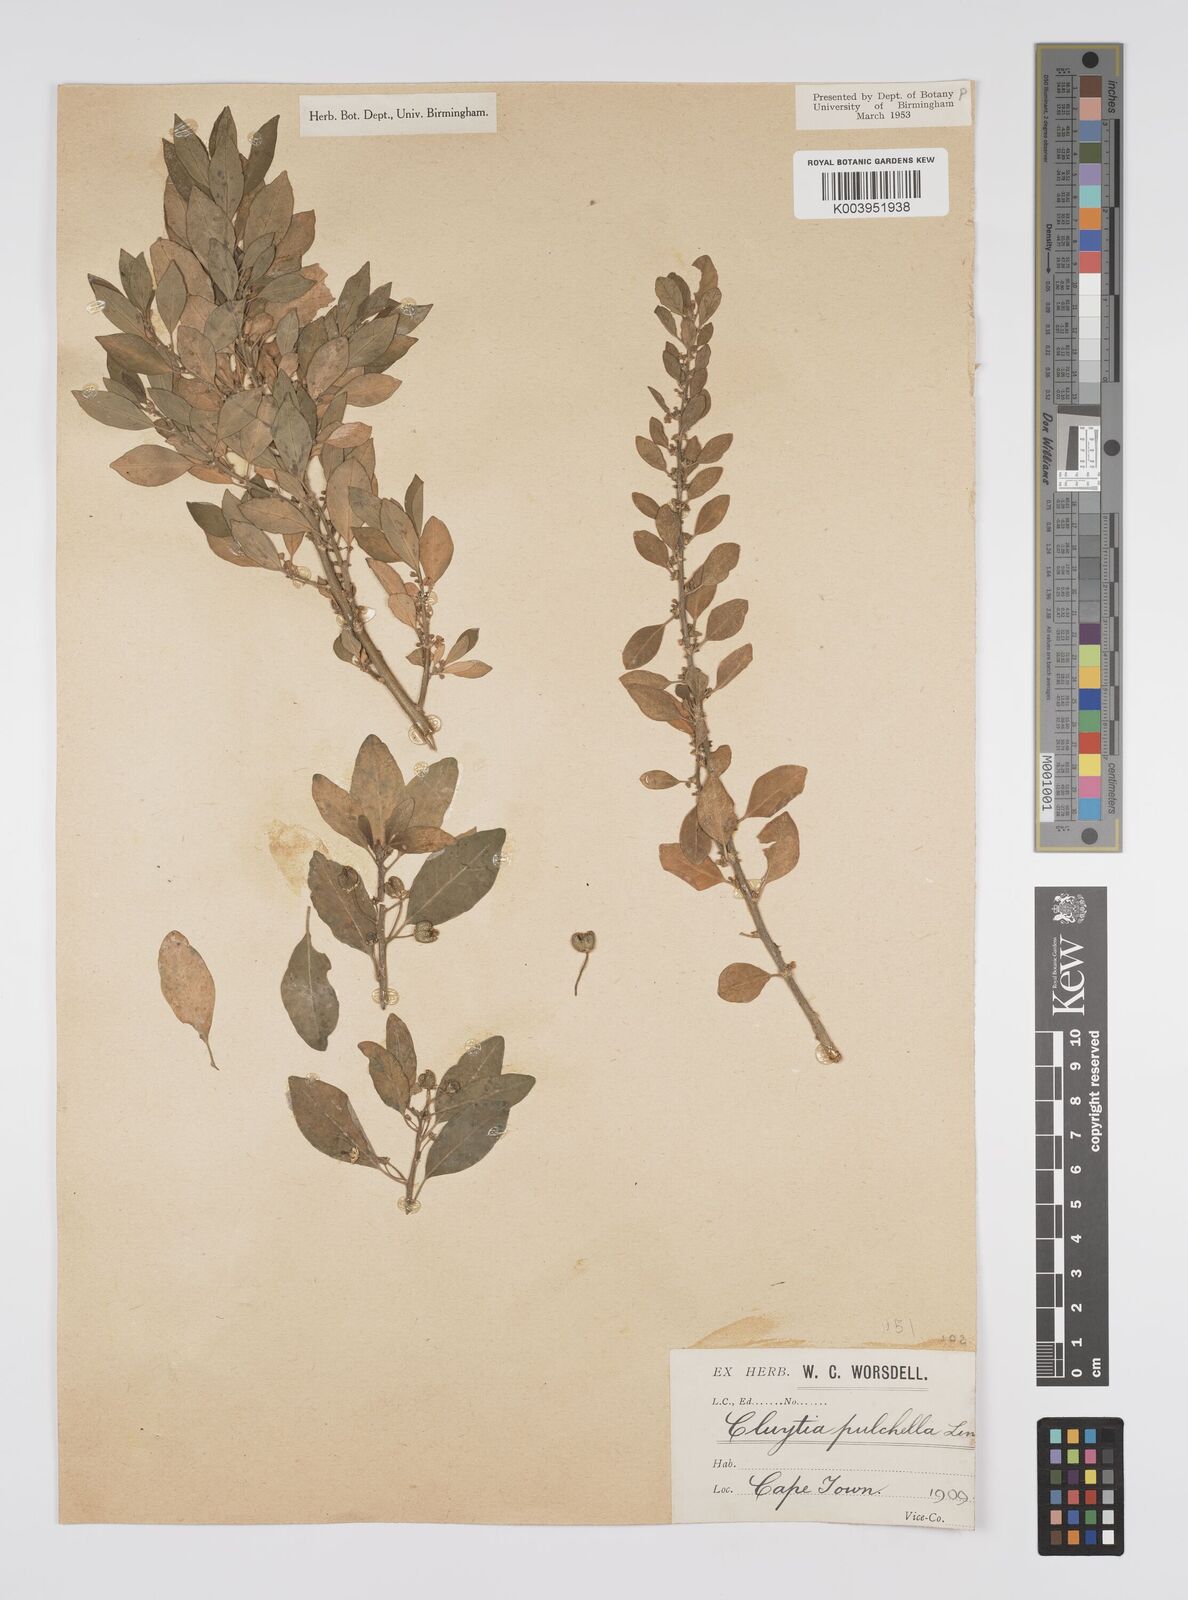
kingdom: Plantae
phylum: Tracheophyta
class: Magnoliopsida
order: Malpighiales
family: Peraceae
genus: Clutia
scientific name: Clutia pulchella
